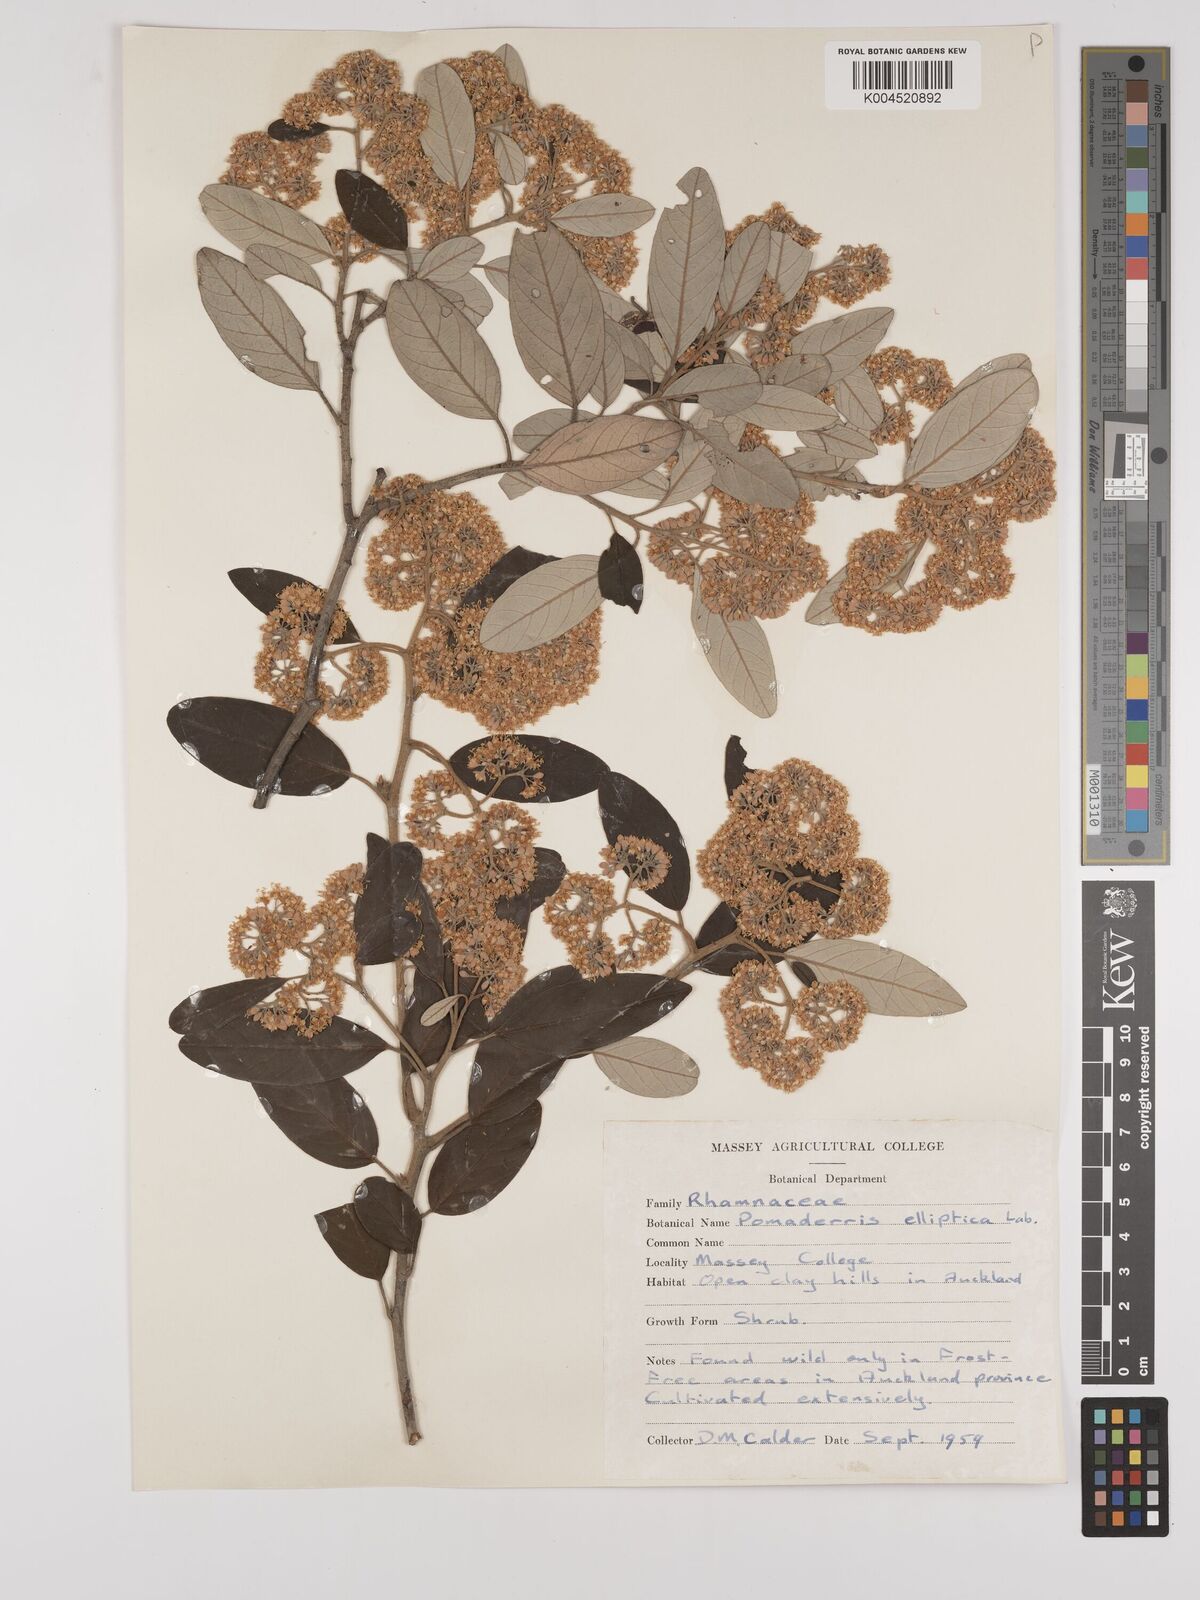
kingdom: Plantae
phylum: Tracheophyta
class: Magnoliopsida
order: Rosales
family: Rhamnaceae
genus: Pomaderris
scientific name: Pomaderris kumeraho
